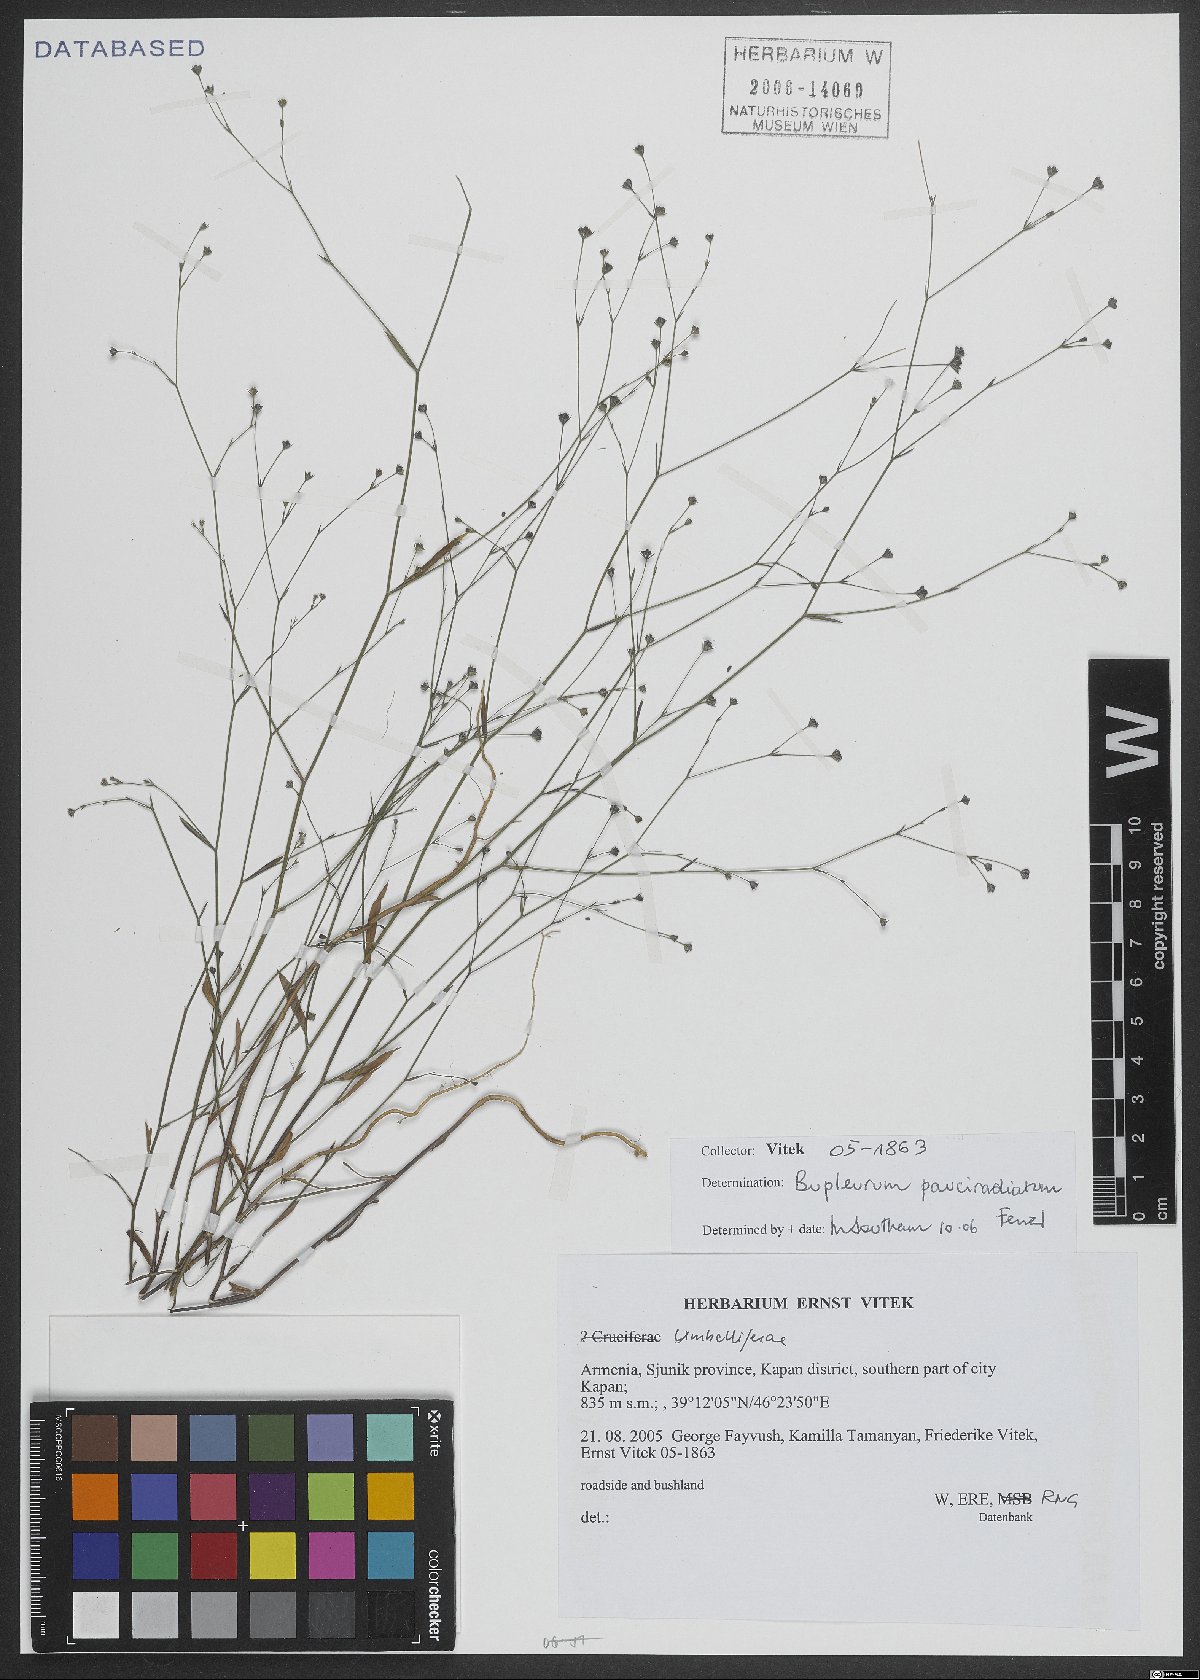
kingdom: Plantae
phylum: Tracheophyta
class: Magnoliopsida
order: Apiales
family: Apiaceae
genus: Bupleurum
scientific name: Bupleurum pauciradiatum
